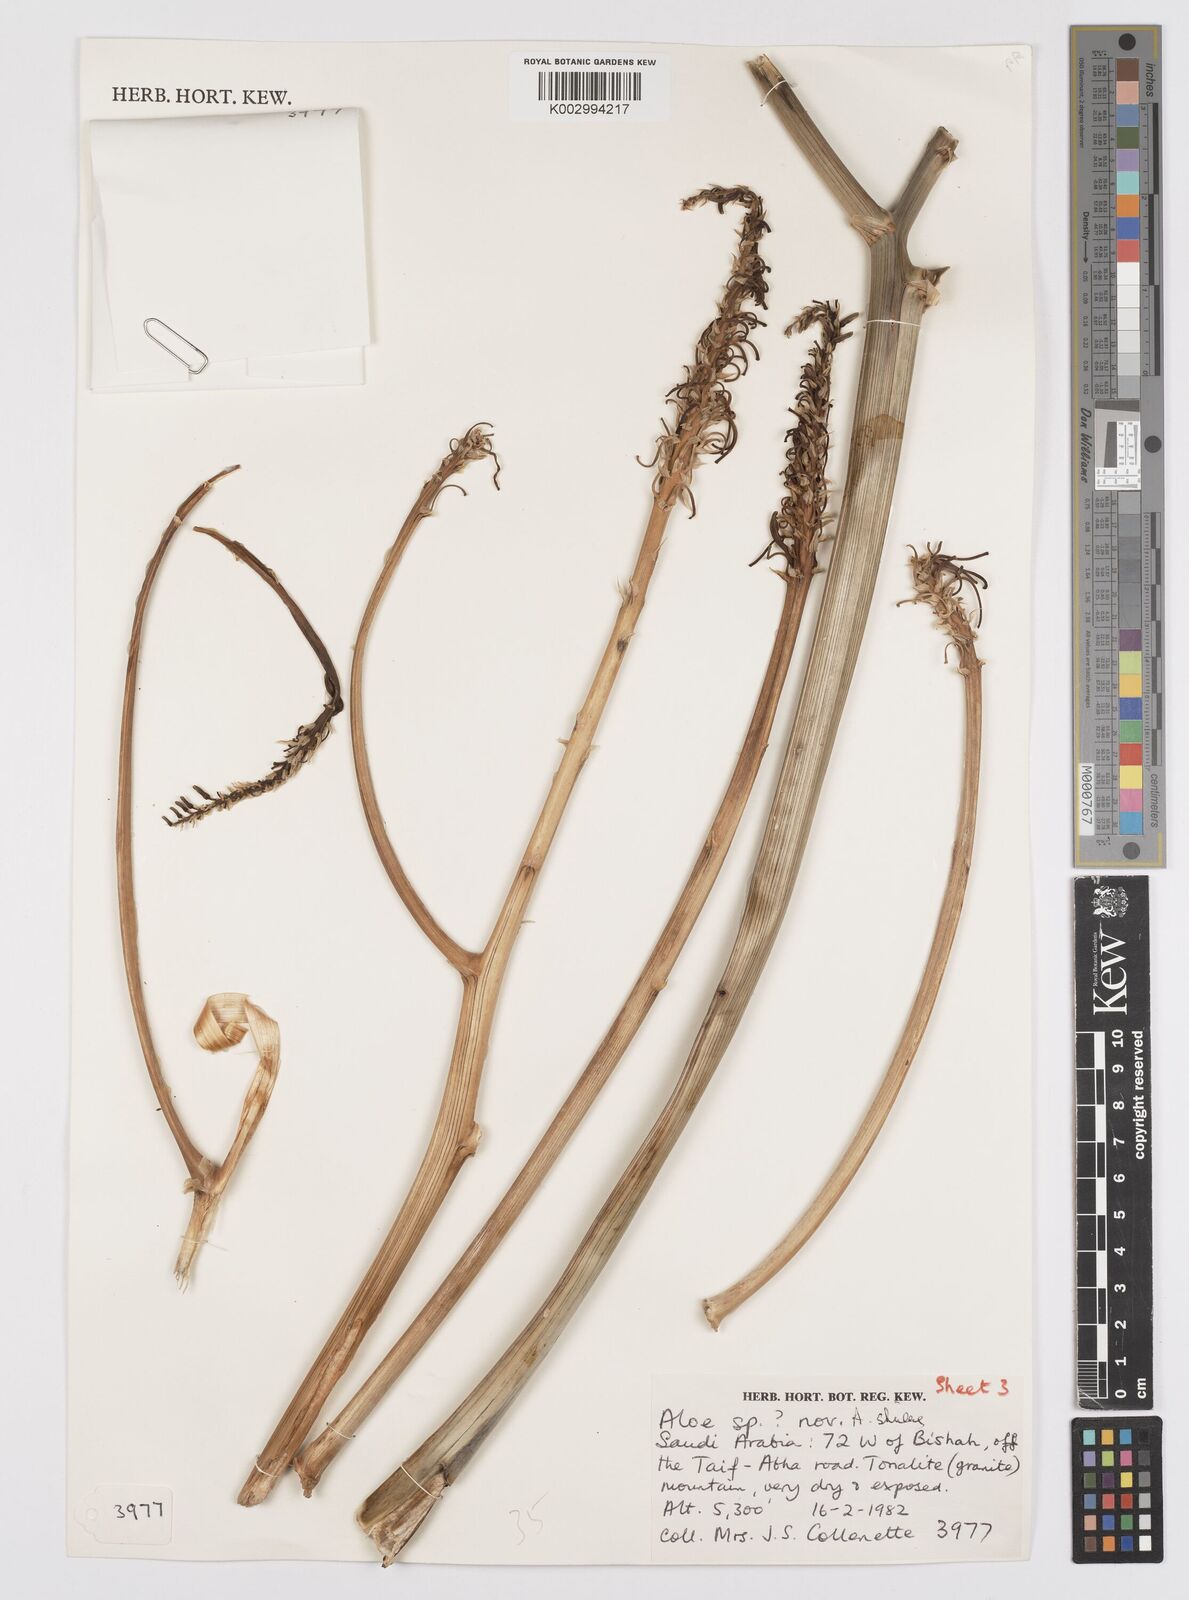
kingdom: Plantae
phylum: Tracheophyta
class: Liliopsida
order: Asparagales
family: Asphodelaceae
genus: Aloe
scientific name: Aloe sheilae
